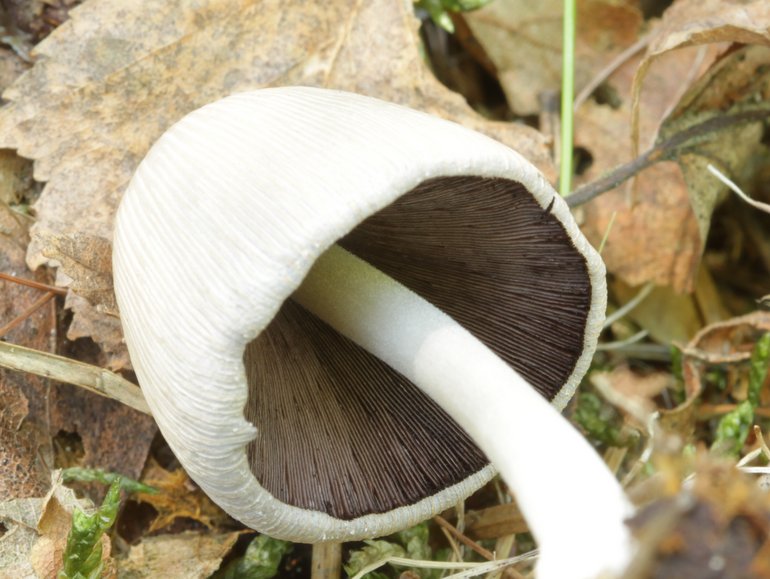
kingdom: Fungi
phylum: Basidiomycota
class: Agaricomycetes
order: Agaricales
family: Psathyrellaceae
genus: Coprinellus
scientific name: Coprinellus domesticus
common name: hus-blækhat
